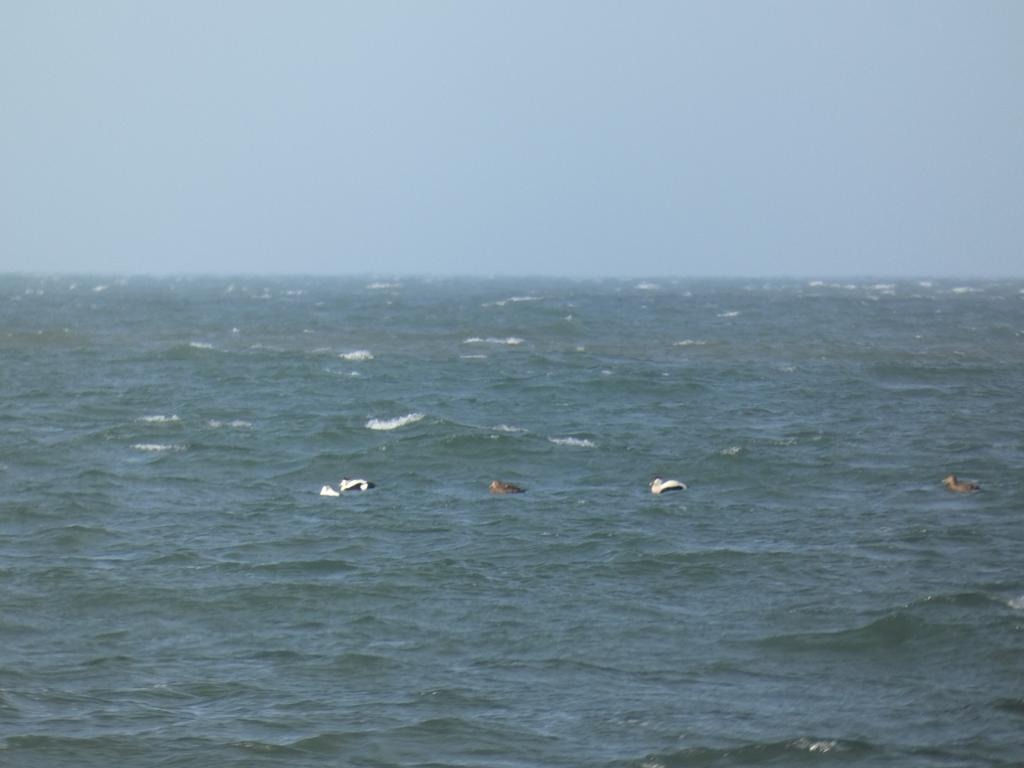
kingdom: Animalia
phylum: Chordata
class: Aves
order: Anseriformes
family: Anatidae
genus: Somateria
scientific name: Somateria mollissima
